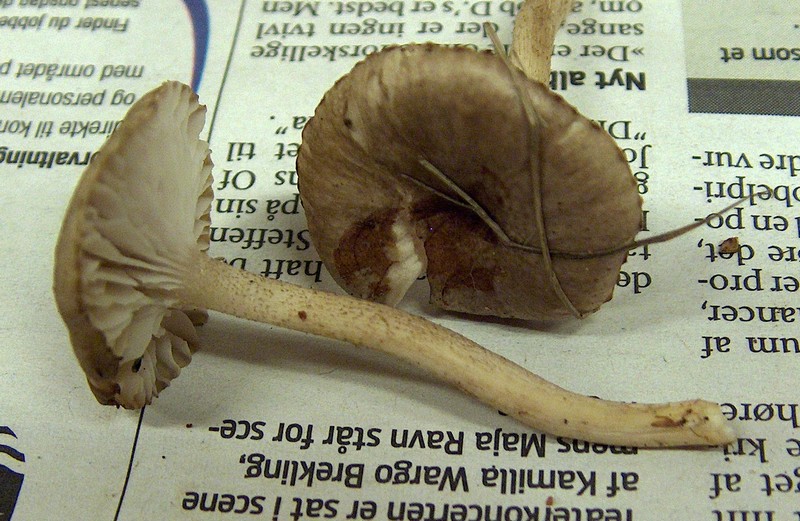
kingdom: Fungi
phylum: Basidiomycota
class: Agaricomycetes
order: Agaricales
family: Hygrophoraceae
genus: Hygrophorus
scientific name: Hygrophorus pustulatus
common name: mørkprikket sneglehat
